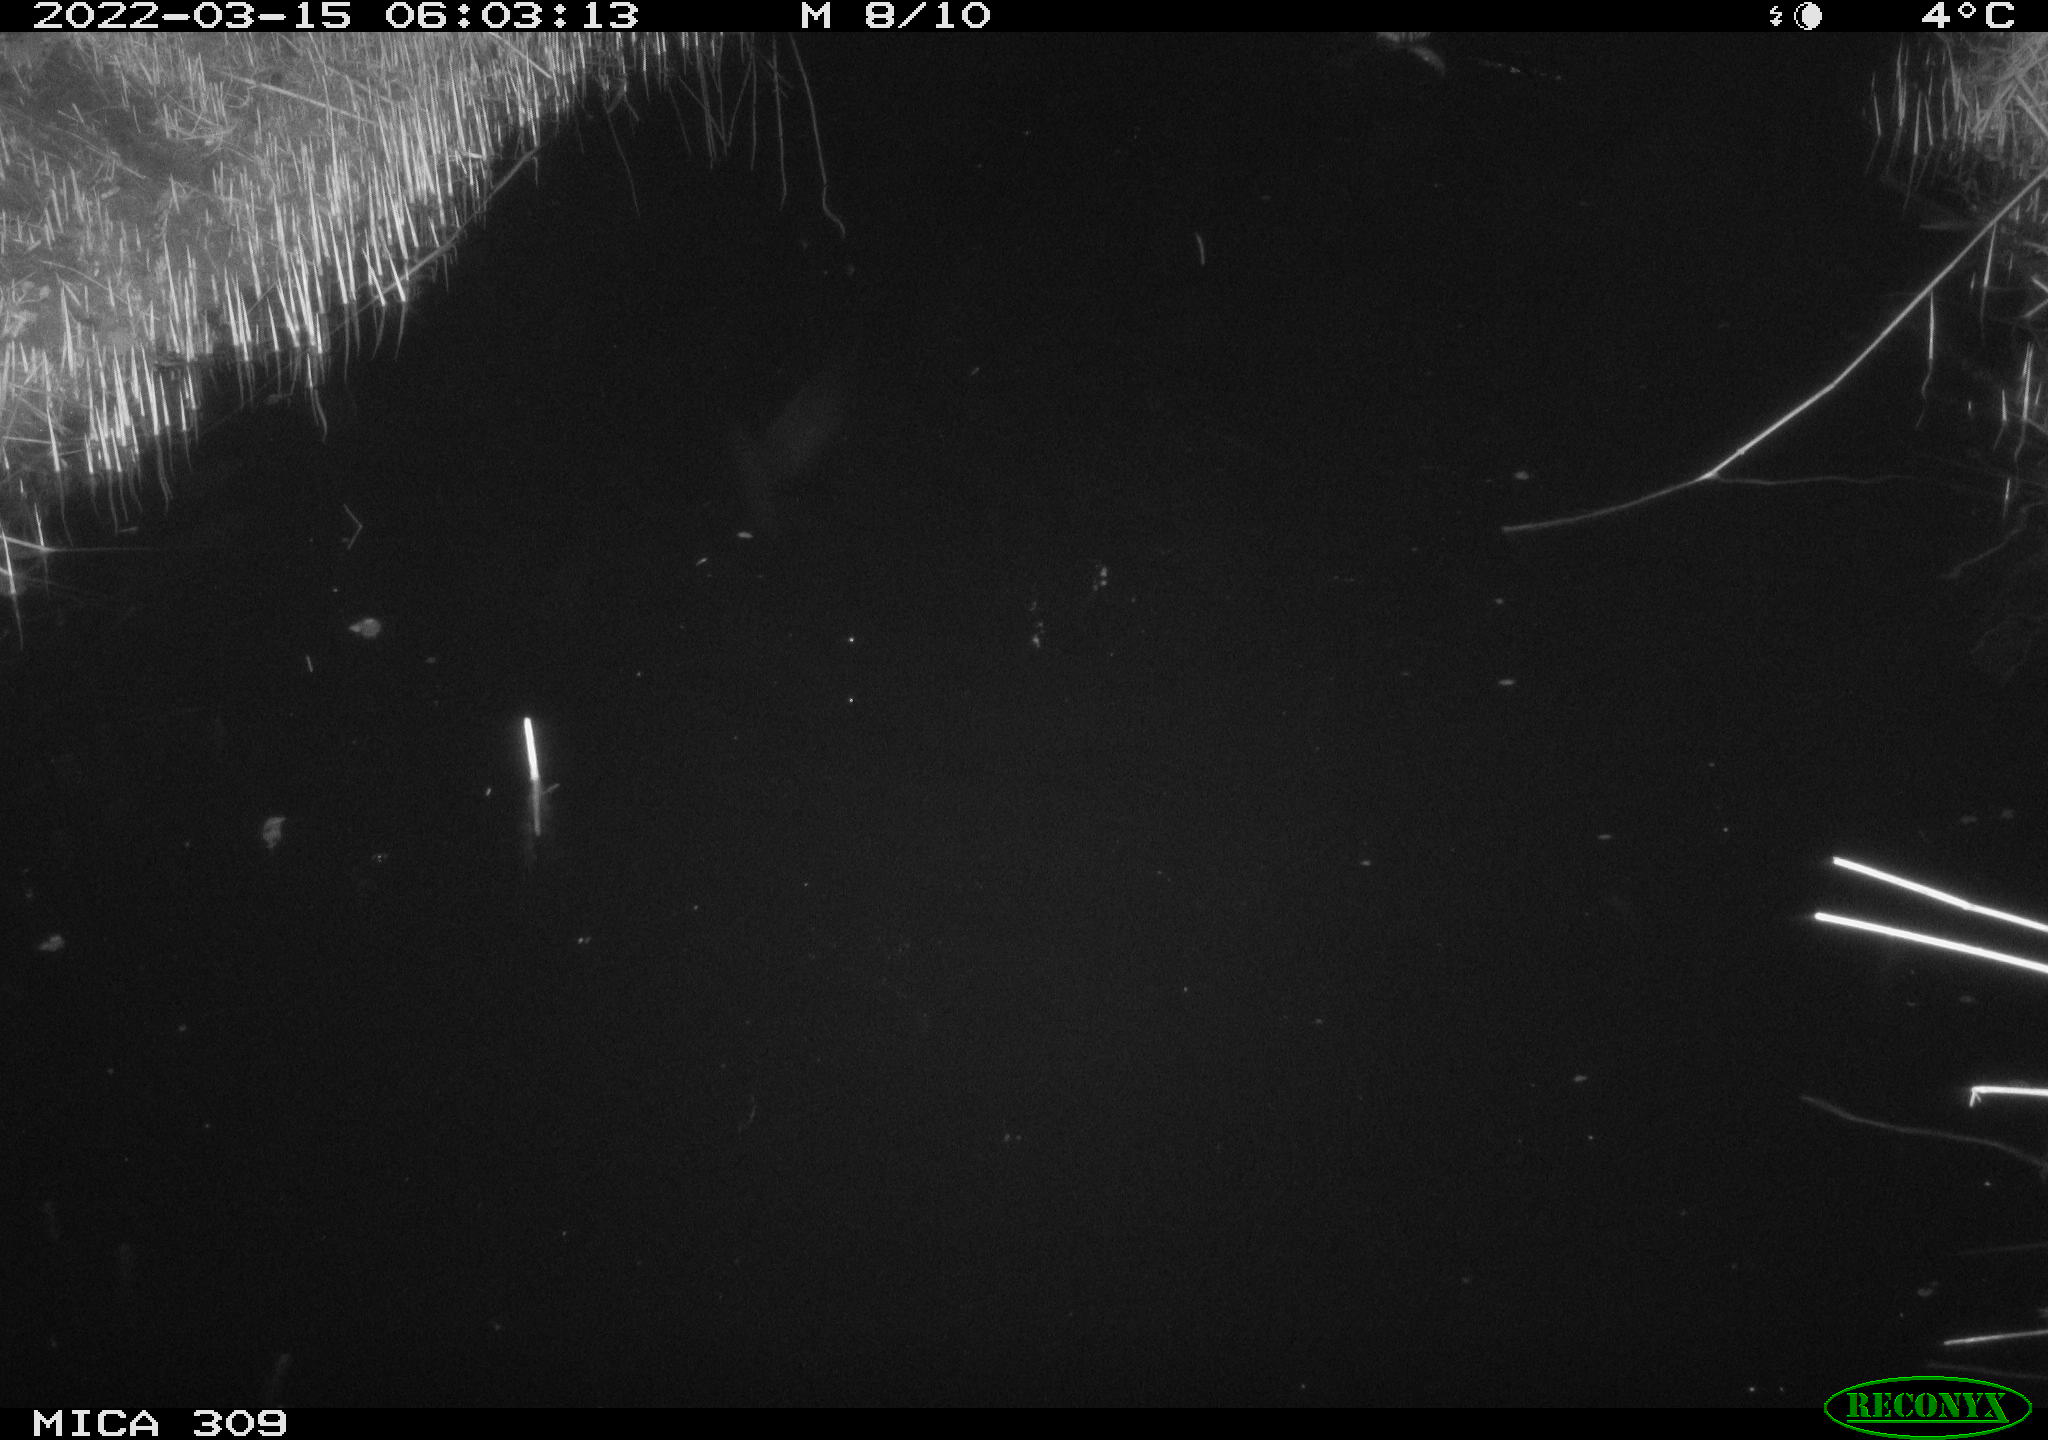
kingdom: Animalia
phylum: Chordata
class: Mammalia
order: Rodentia
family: Cricetidae
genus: Ondatra
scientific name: Ondatra zibethicus
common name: Muskrat
